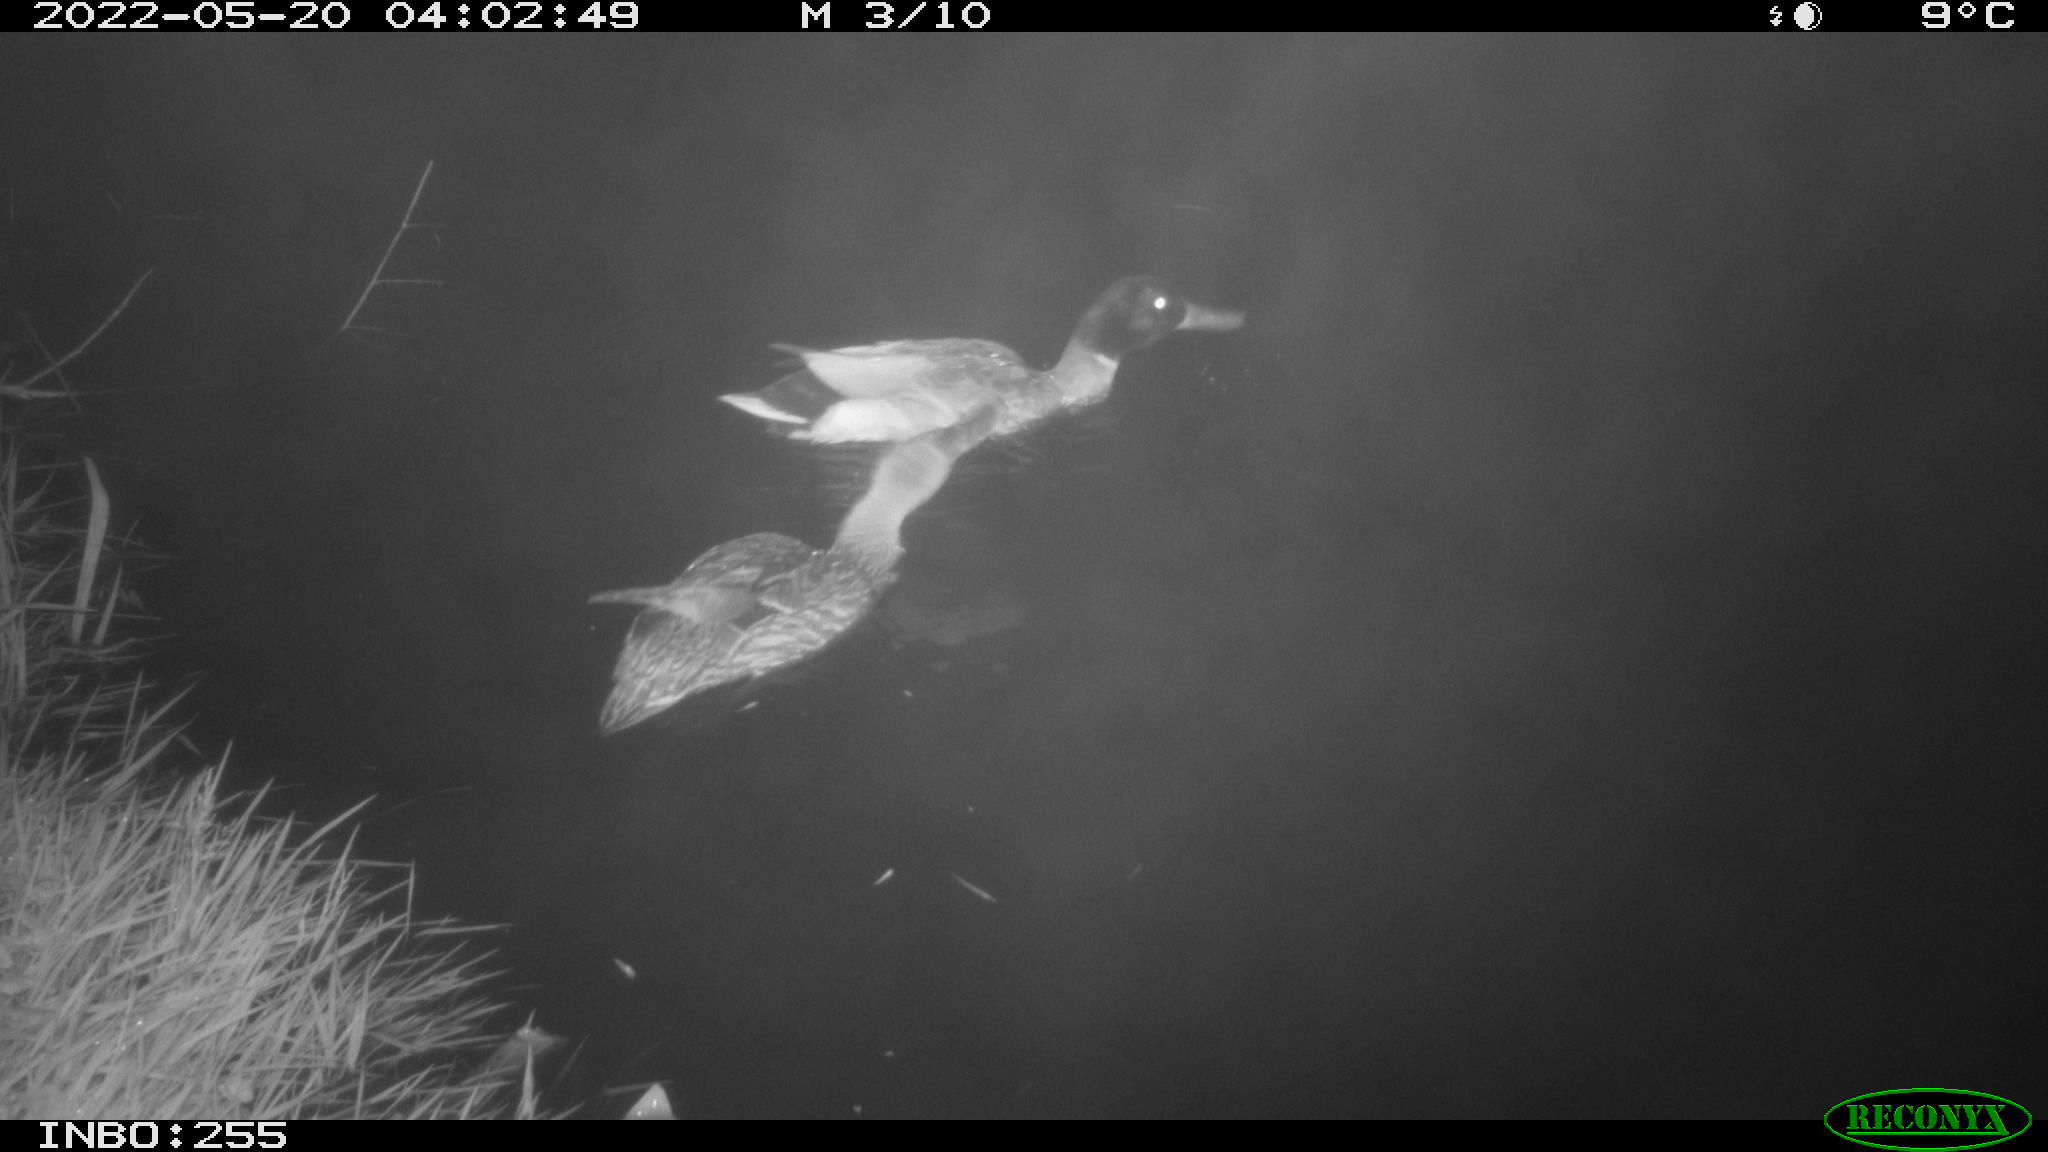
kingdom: Animalia
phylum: Chordata
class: Aves
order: Anseriformes
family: Anatidae
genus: Anas
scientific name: Anas platyrhynchos
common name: Mallard
